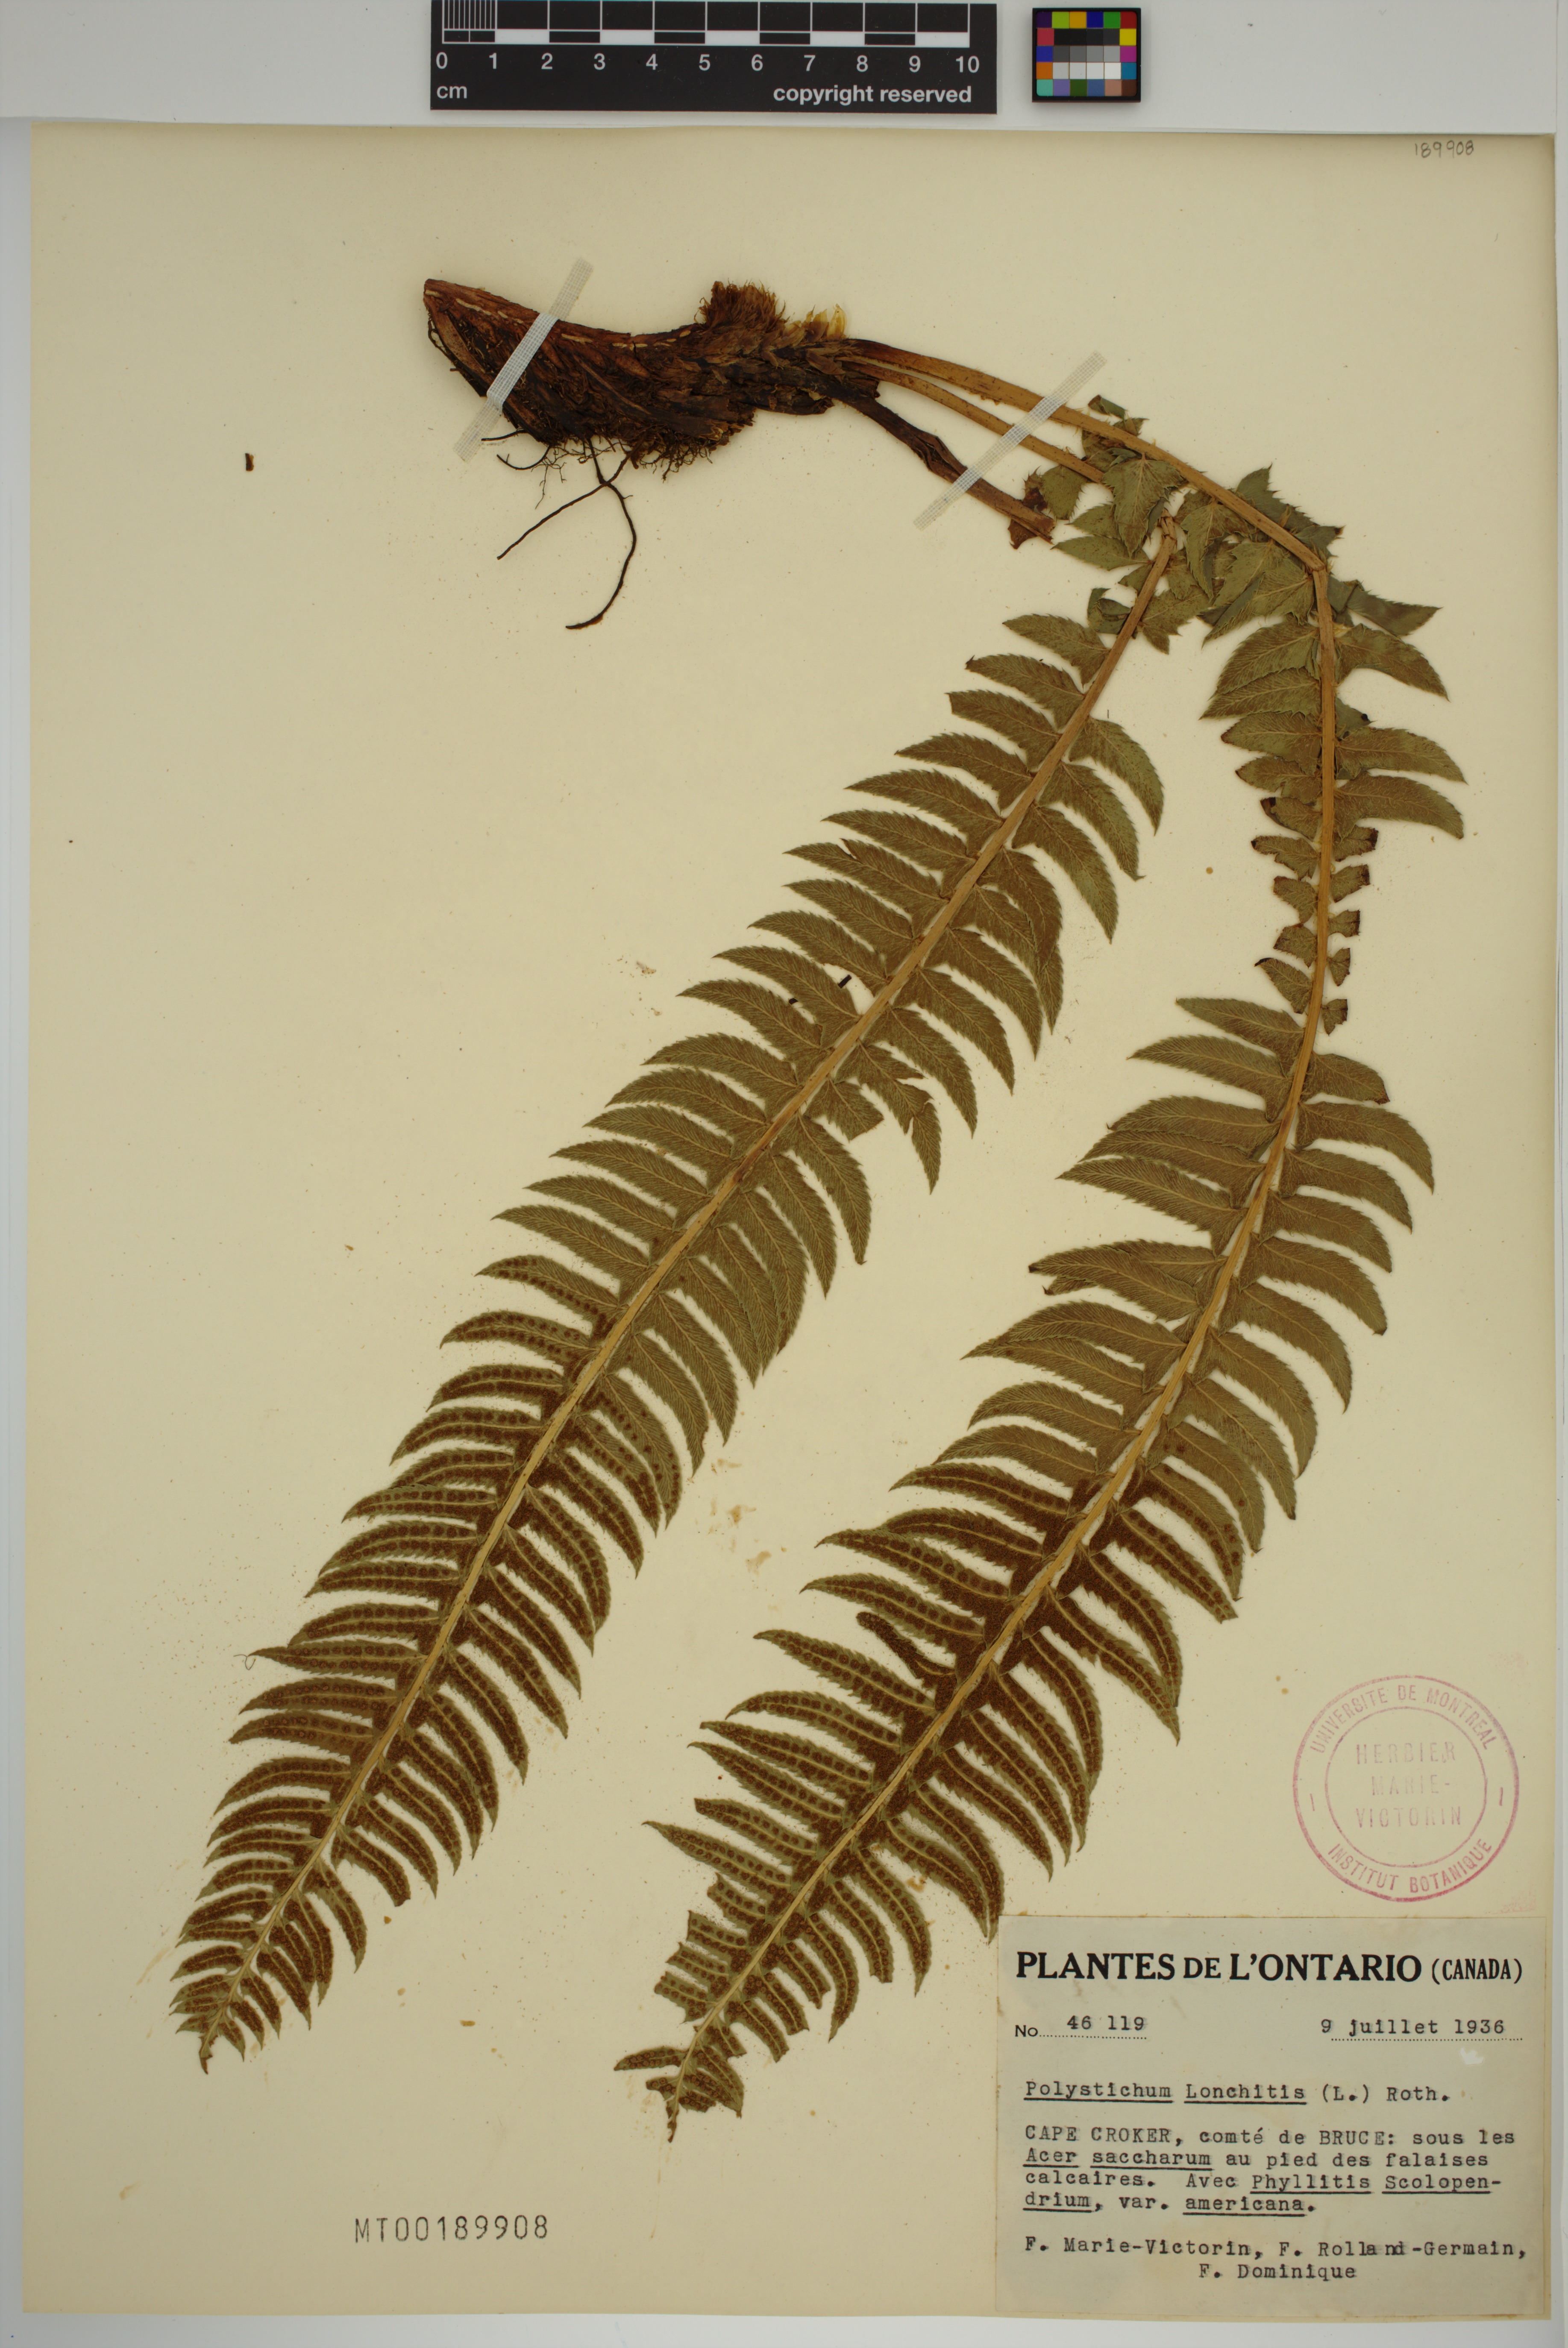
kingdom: Plantae
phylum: Tracheophyta
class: Polypodiopsida
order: Polypodiales
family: Dryopteridaceae
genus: Polystichum
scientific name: Polystichum lonchitis
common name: Holly fern
